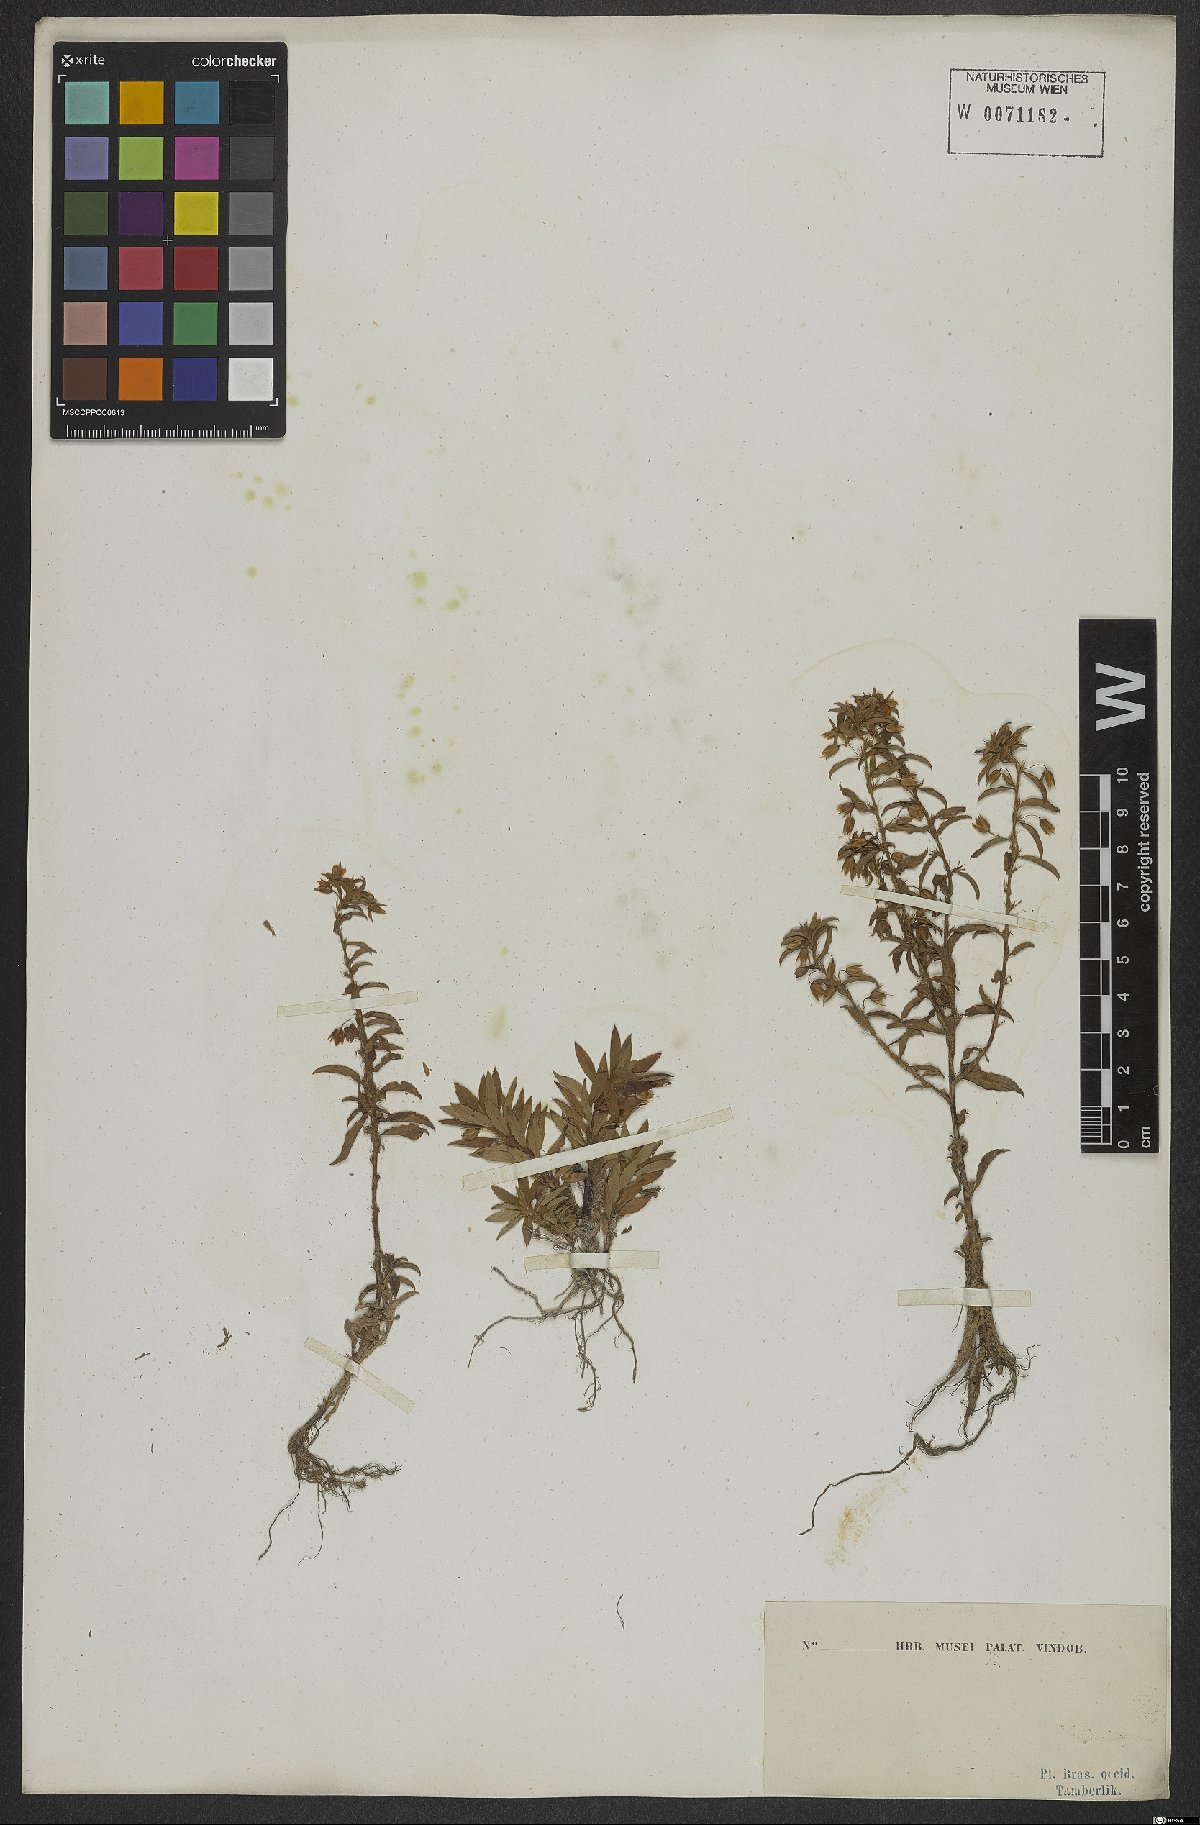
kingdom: Plantae
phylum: Tracheophyta
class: Magnoliopsida
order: Malpighiales
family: Ochnaceae
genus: Sauvagesia
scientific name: Sauvagesia erecta
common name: Creole tea
